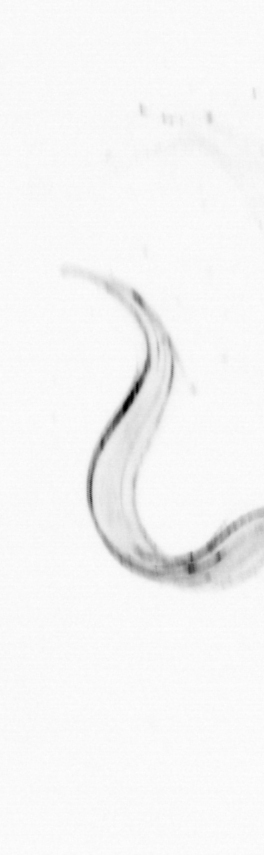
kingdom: Animalia
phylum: Chordata
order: Copelata
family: Fritillariidae
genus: Appendicularia
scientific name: Appendicularia
